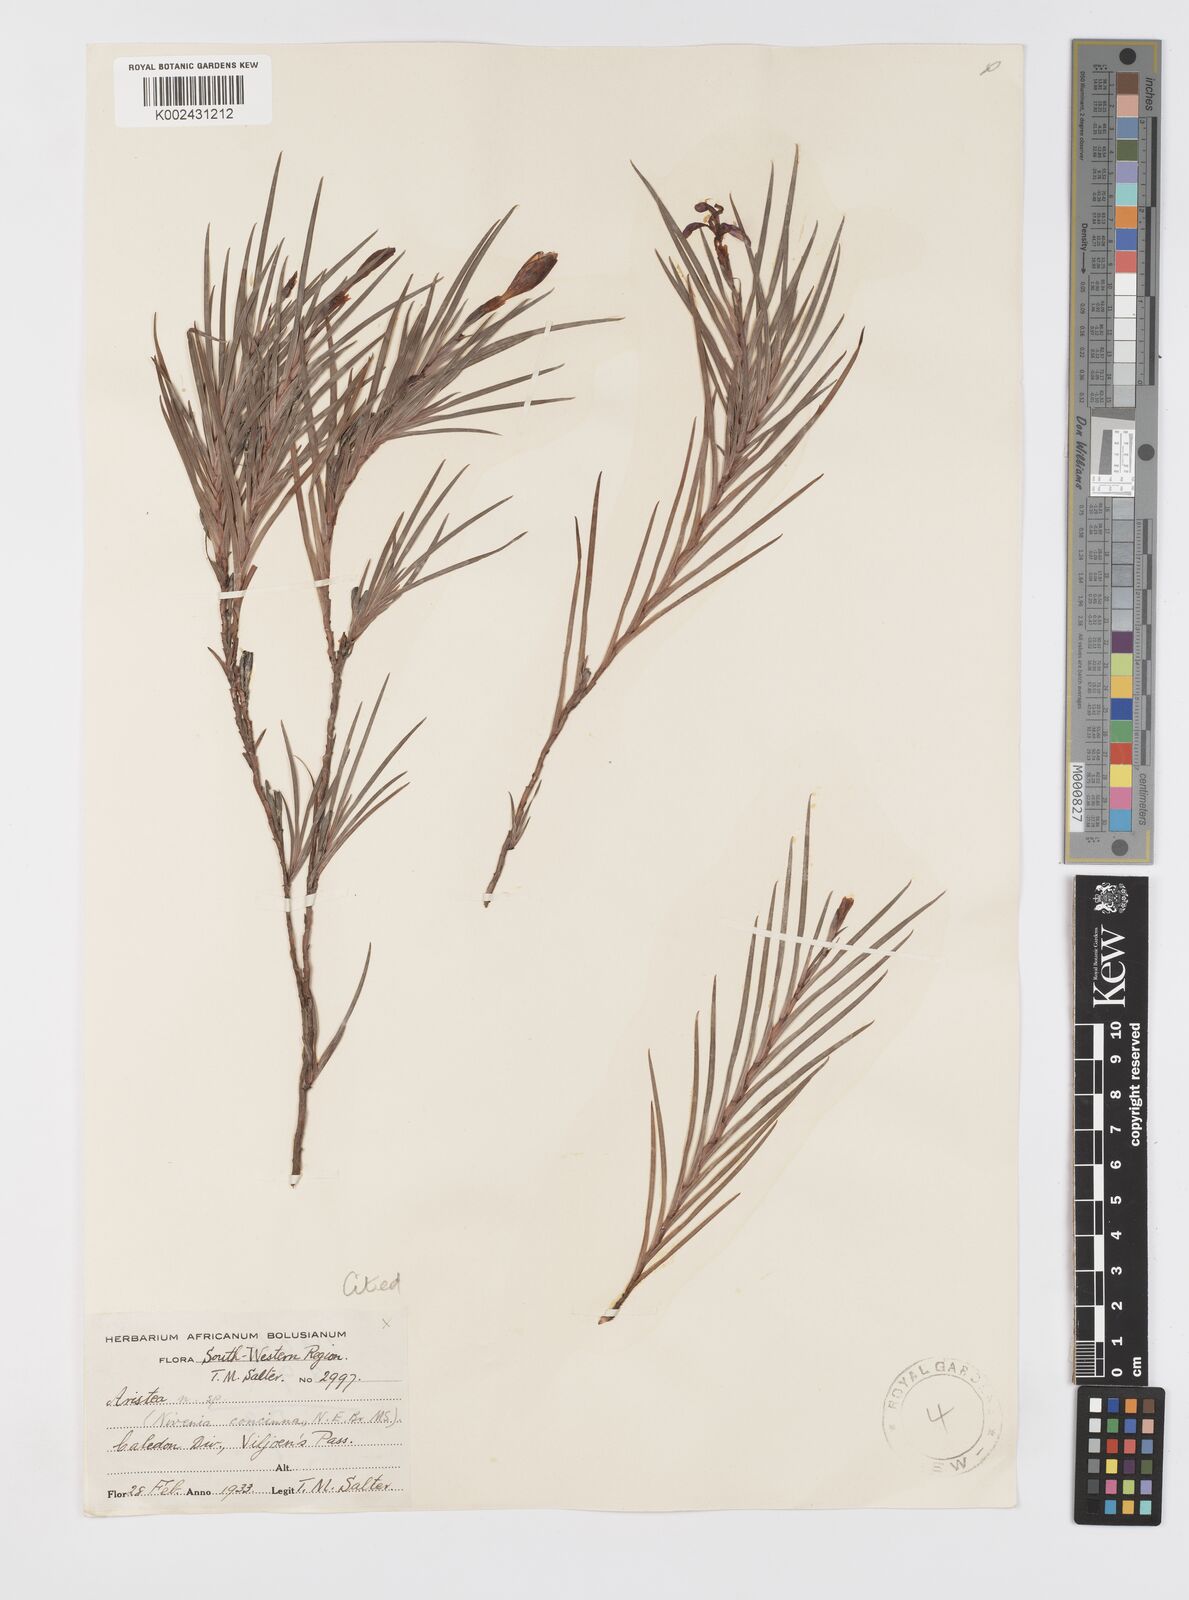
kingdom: Plantae
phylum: Tracheophyta
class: Liliopsida
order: Asparagales
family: Iridaceae
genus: Nivenia
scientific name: Nivenia concinna
